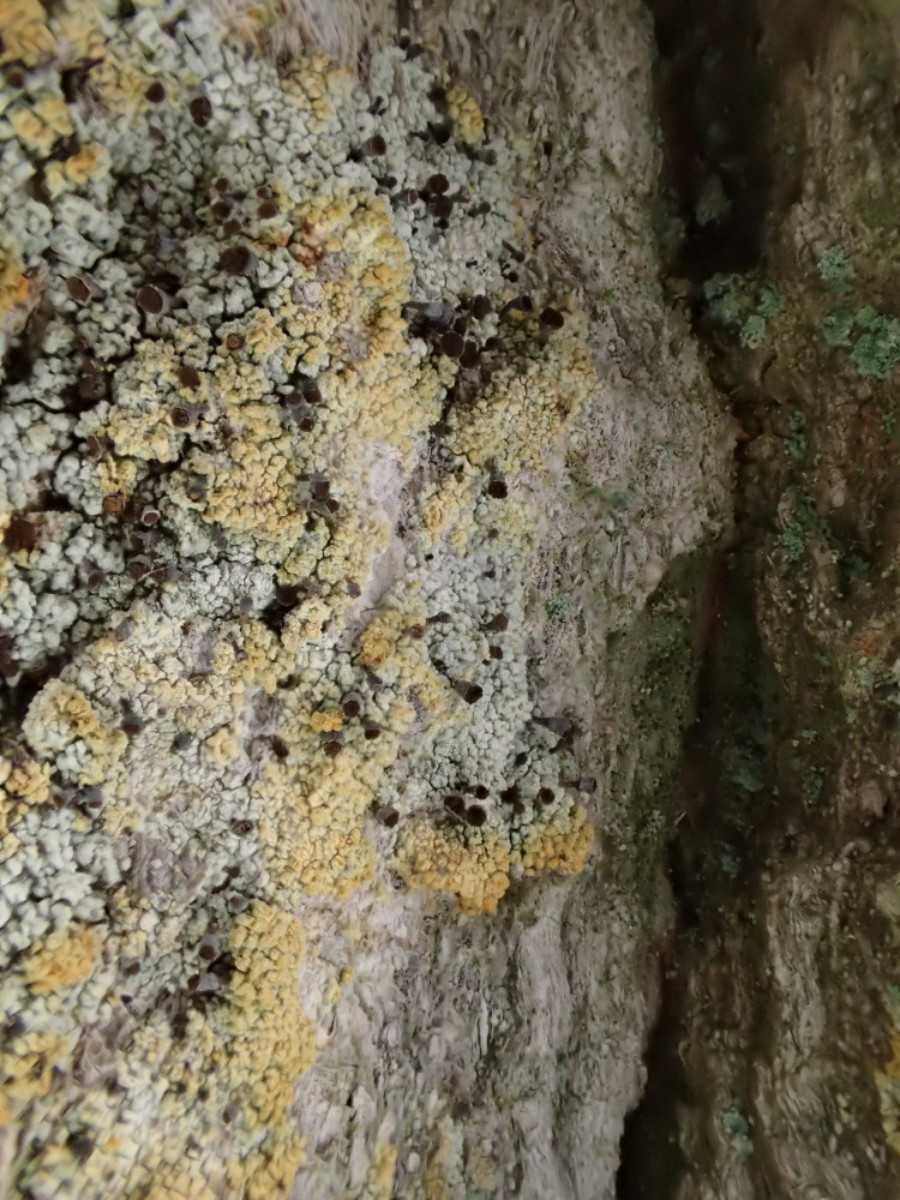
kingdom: Fungi
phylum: Ascomycota
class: Coniocybomycetes
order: Coniocybales
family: Coniocybaceae
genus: Chaenotheca
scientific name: Chaenotheca ferruginea
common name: rustbrun knappenålslav
